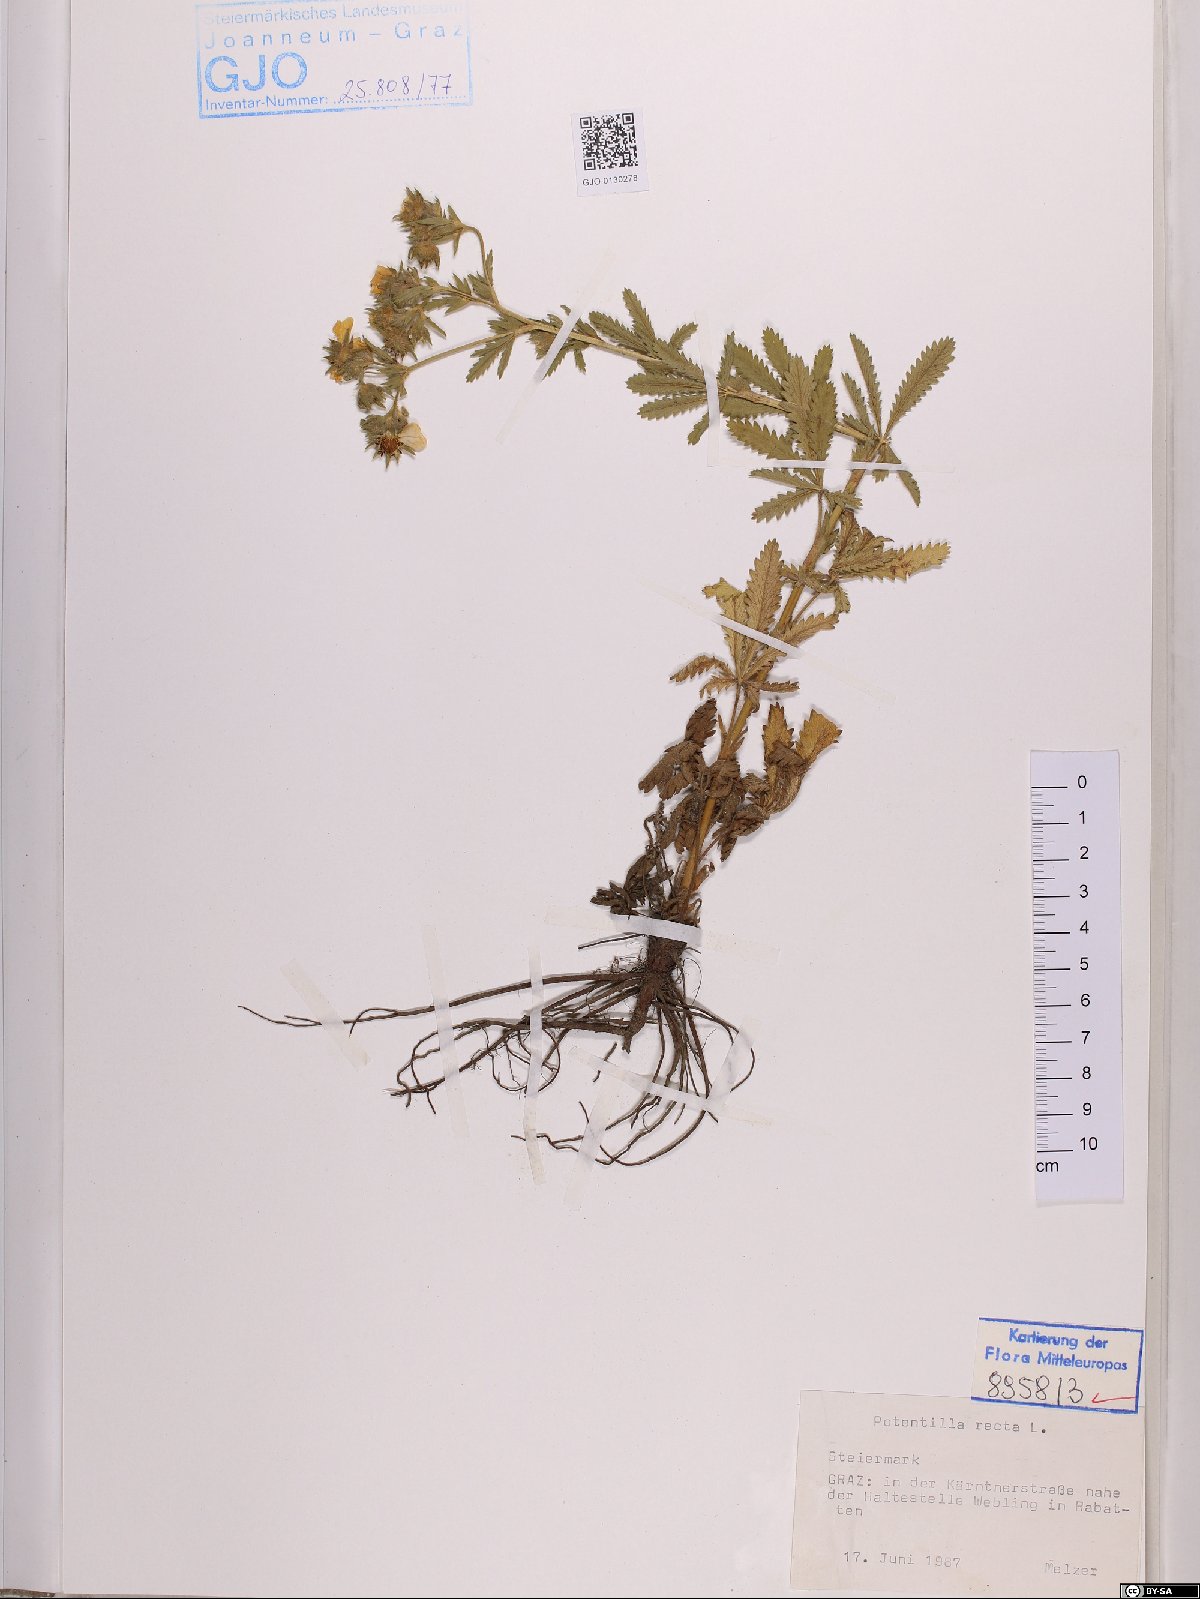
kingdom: Plantae
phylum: Tracheophyta
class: Magnoliopsida
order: Rosales
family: Rosaceae
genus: Potentilla
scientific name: Potentilla recta
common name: Sulphur cinquefoil
